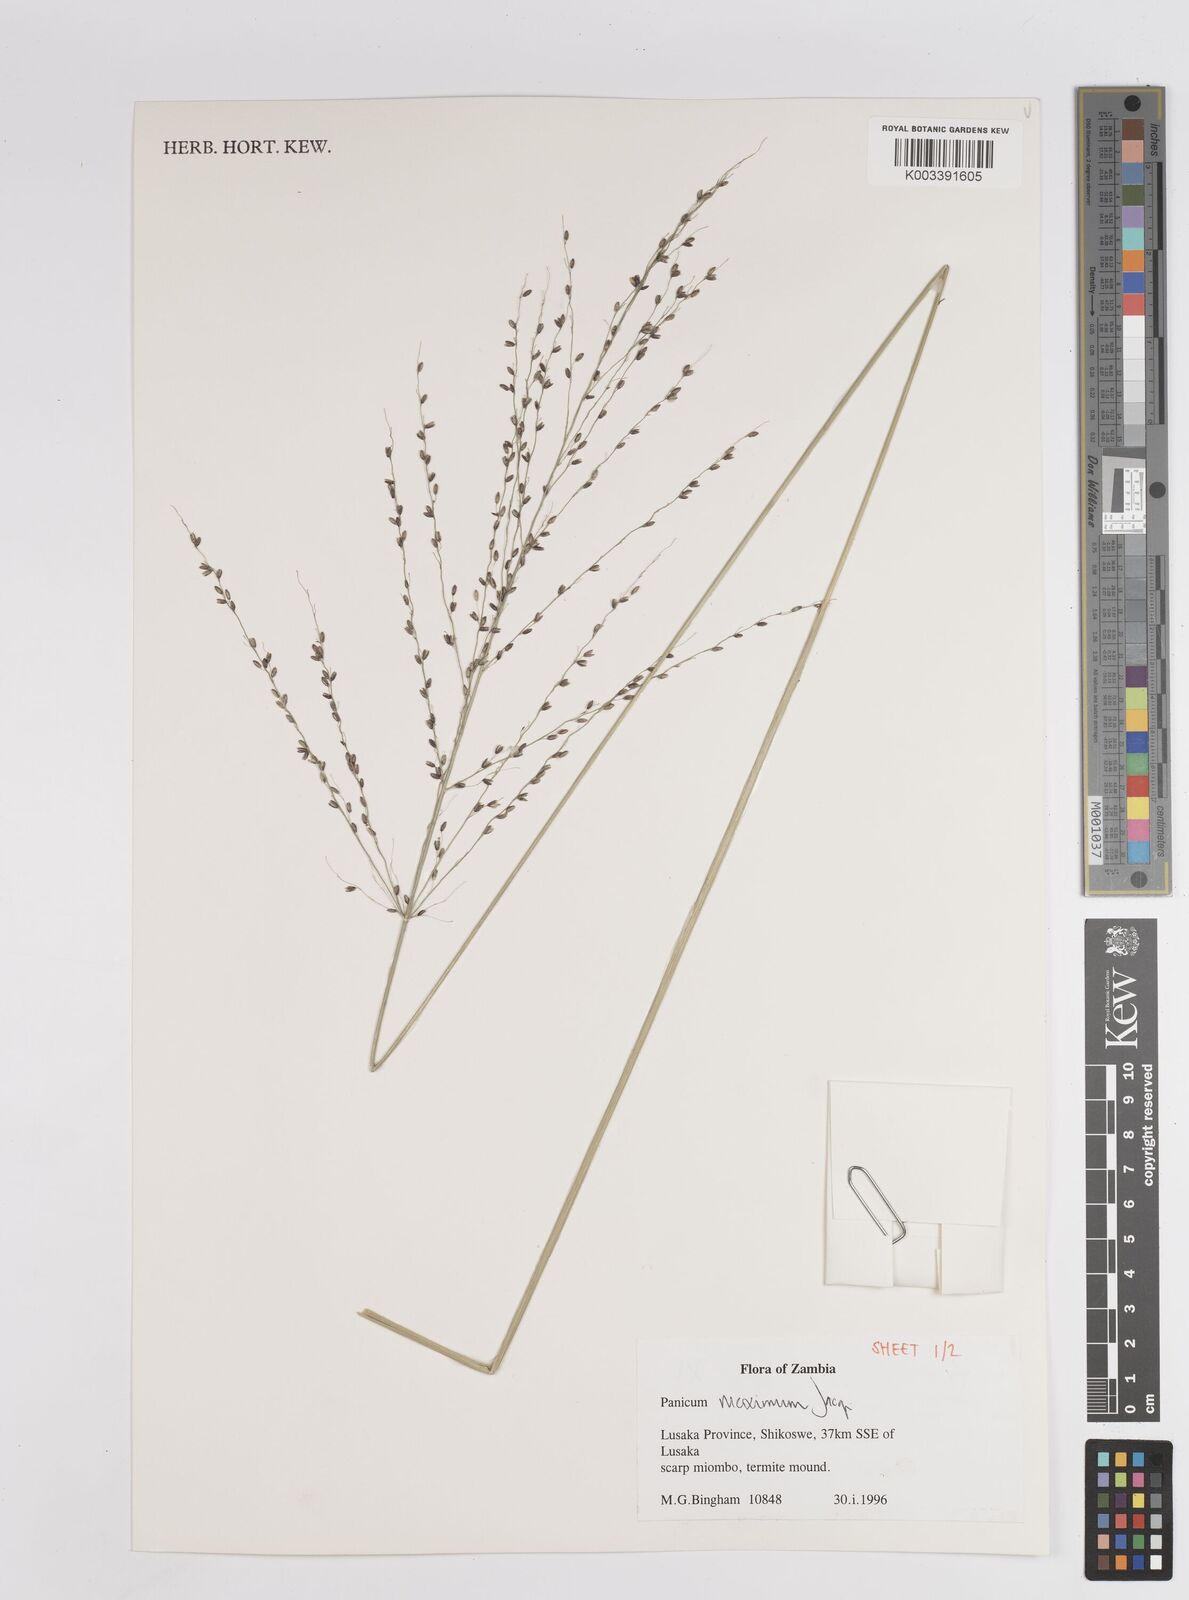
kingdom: Plantae
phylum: Tracheophyta
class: Liliopsida
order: Poales
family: Poaceae
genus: Megathyrsus
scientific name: Megathyrsus maximus
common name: Guineagrass
